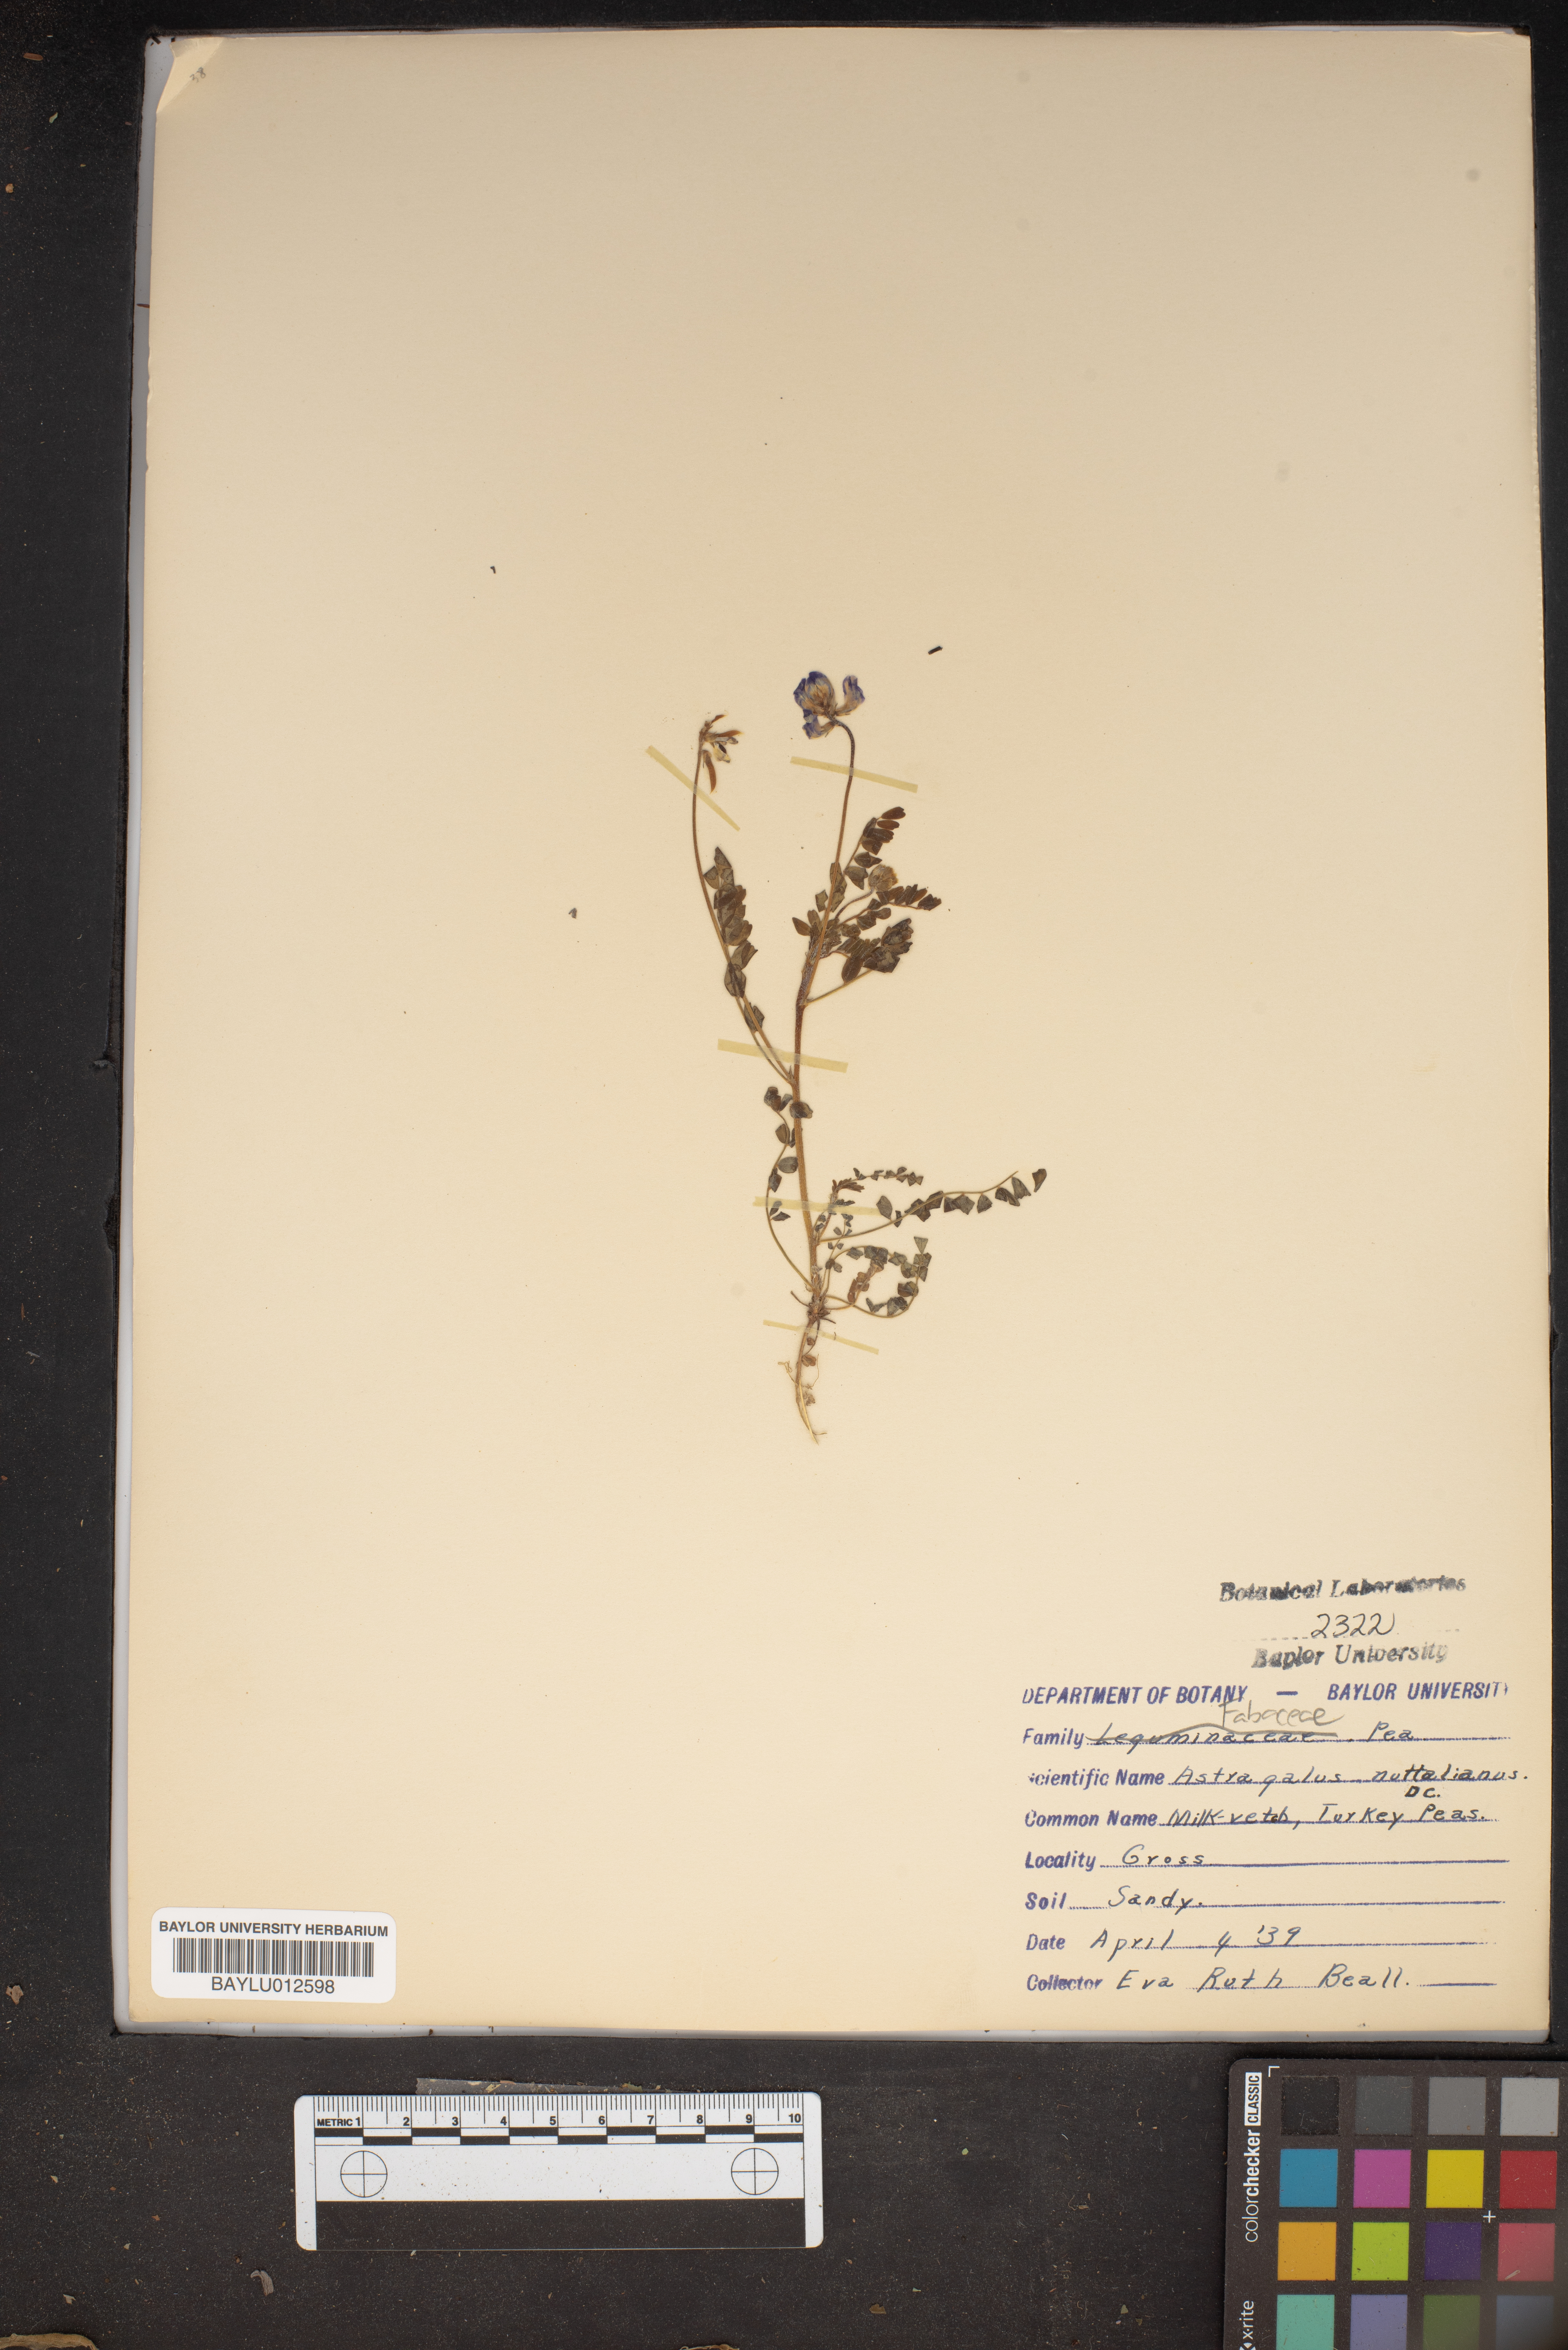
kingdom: Plantae
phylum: Tracheophyta
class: Magnoliopsida
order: Fabales
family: Fabaceae
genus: Astragalus
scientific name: Astragalus nuttallianus
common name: Smallflowered milkvetch
